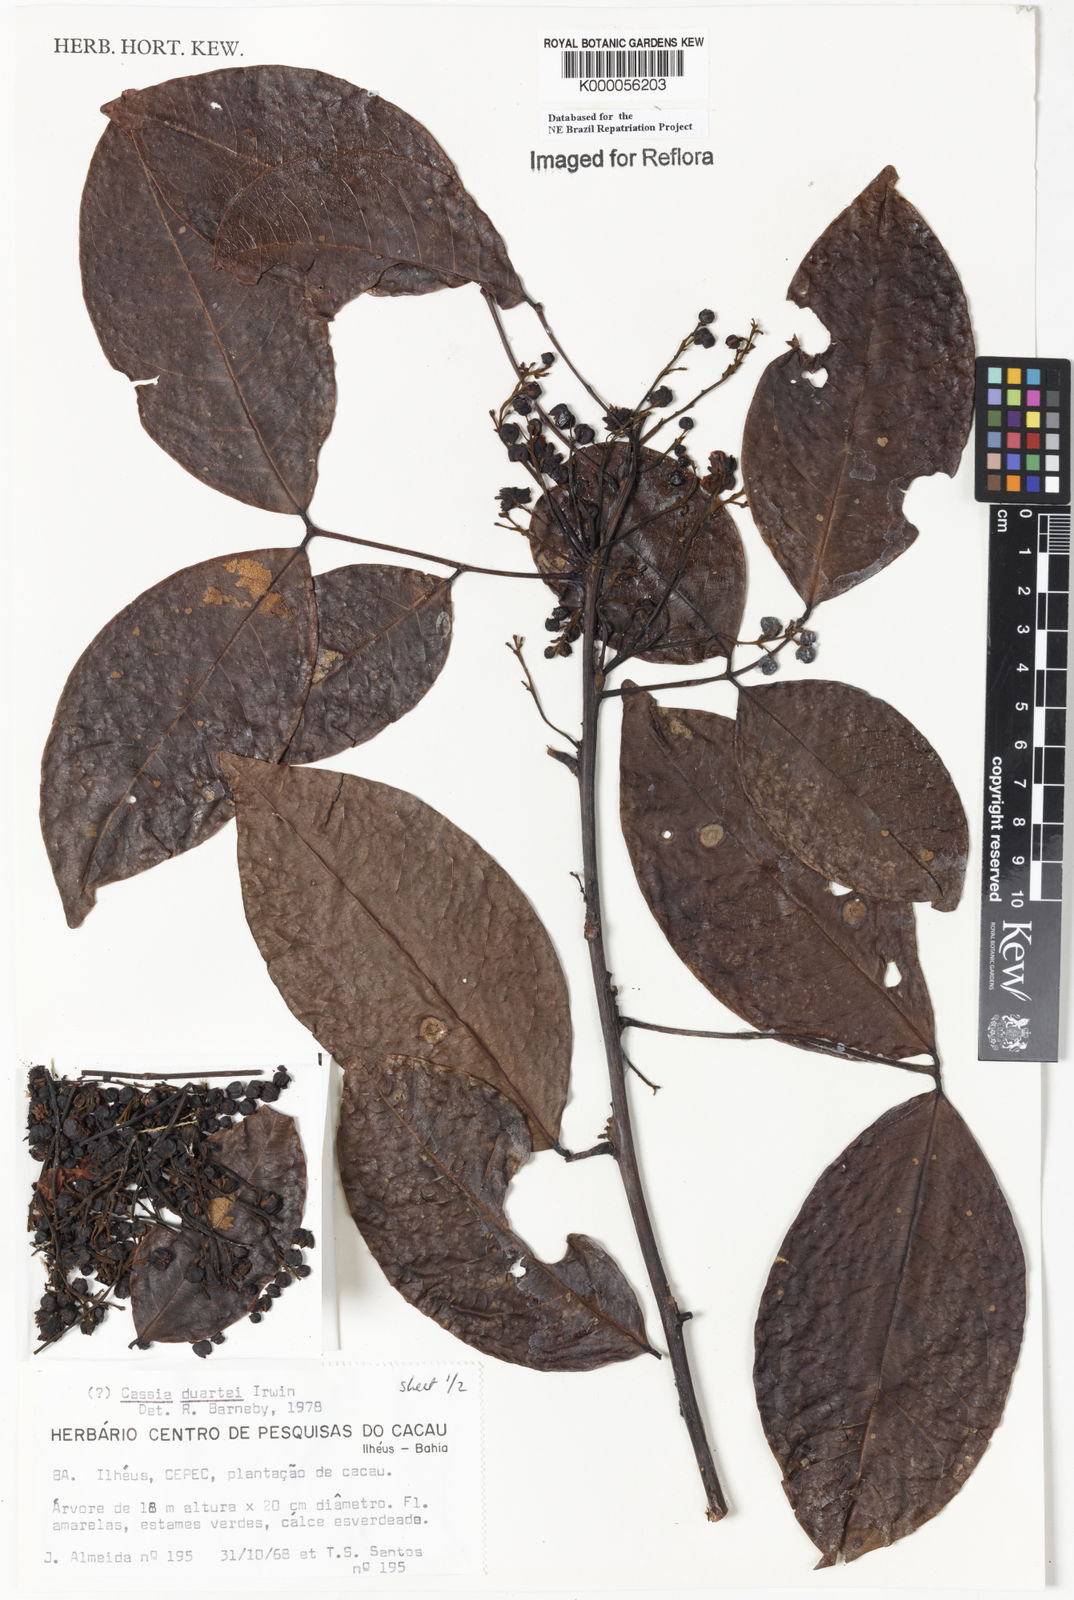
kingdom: Plantae
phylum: Tracheophyta
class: Magnoliopsida
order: Fabales
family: Fabaceae
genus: Chamaecrista
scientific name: Chamaecrista duartei
